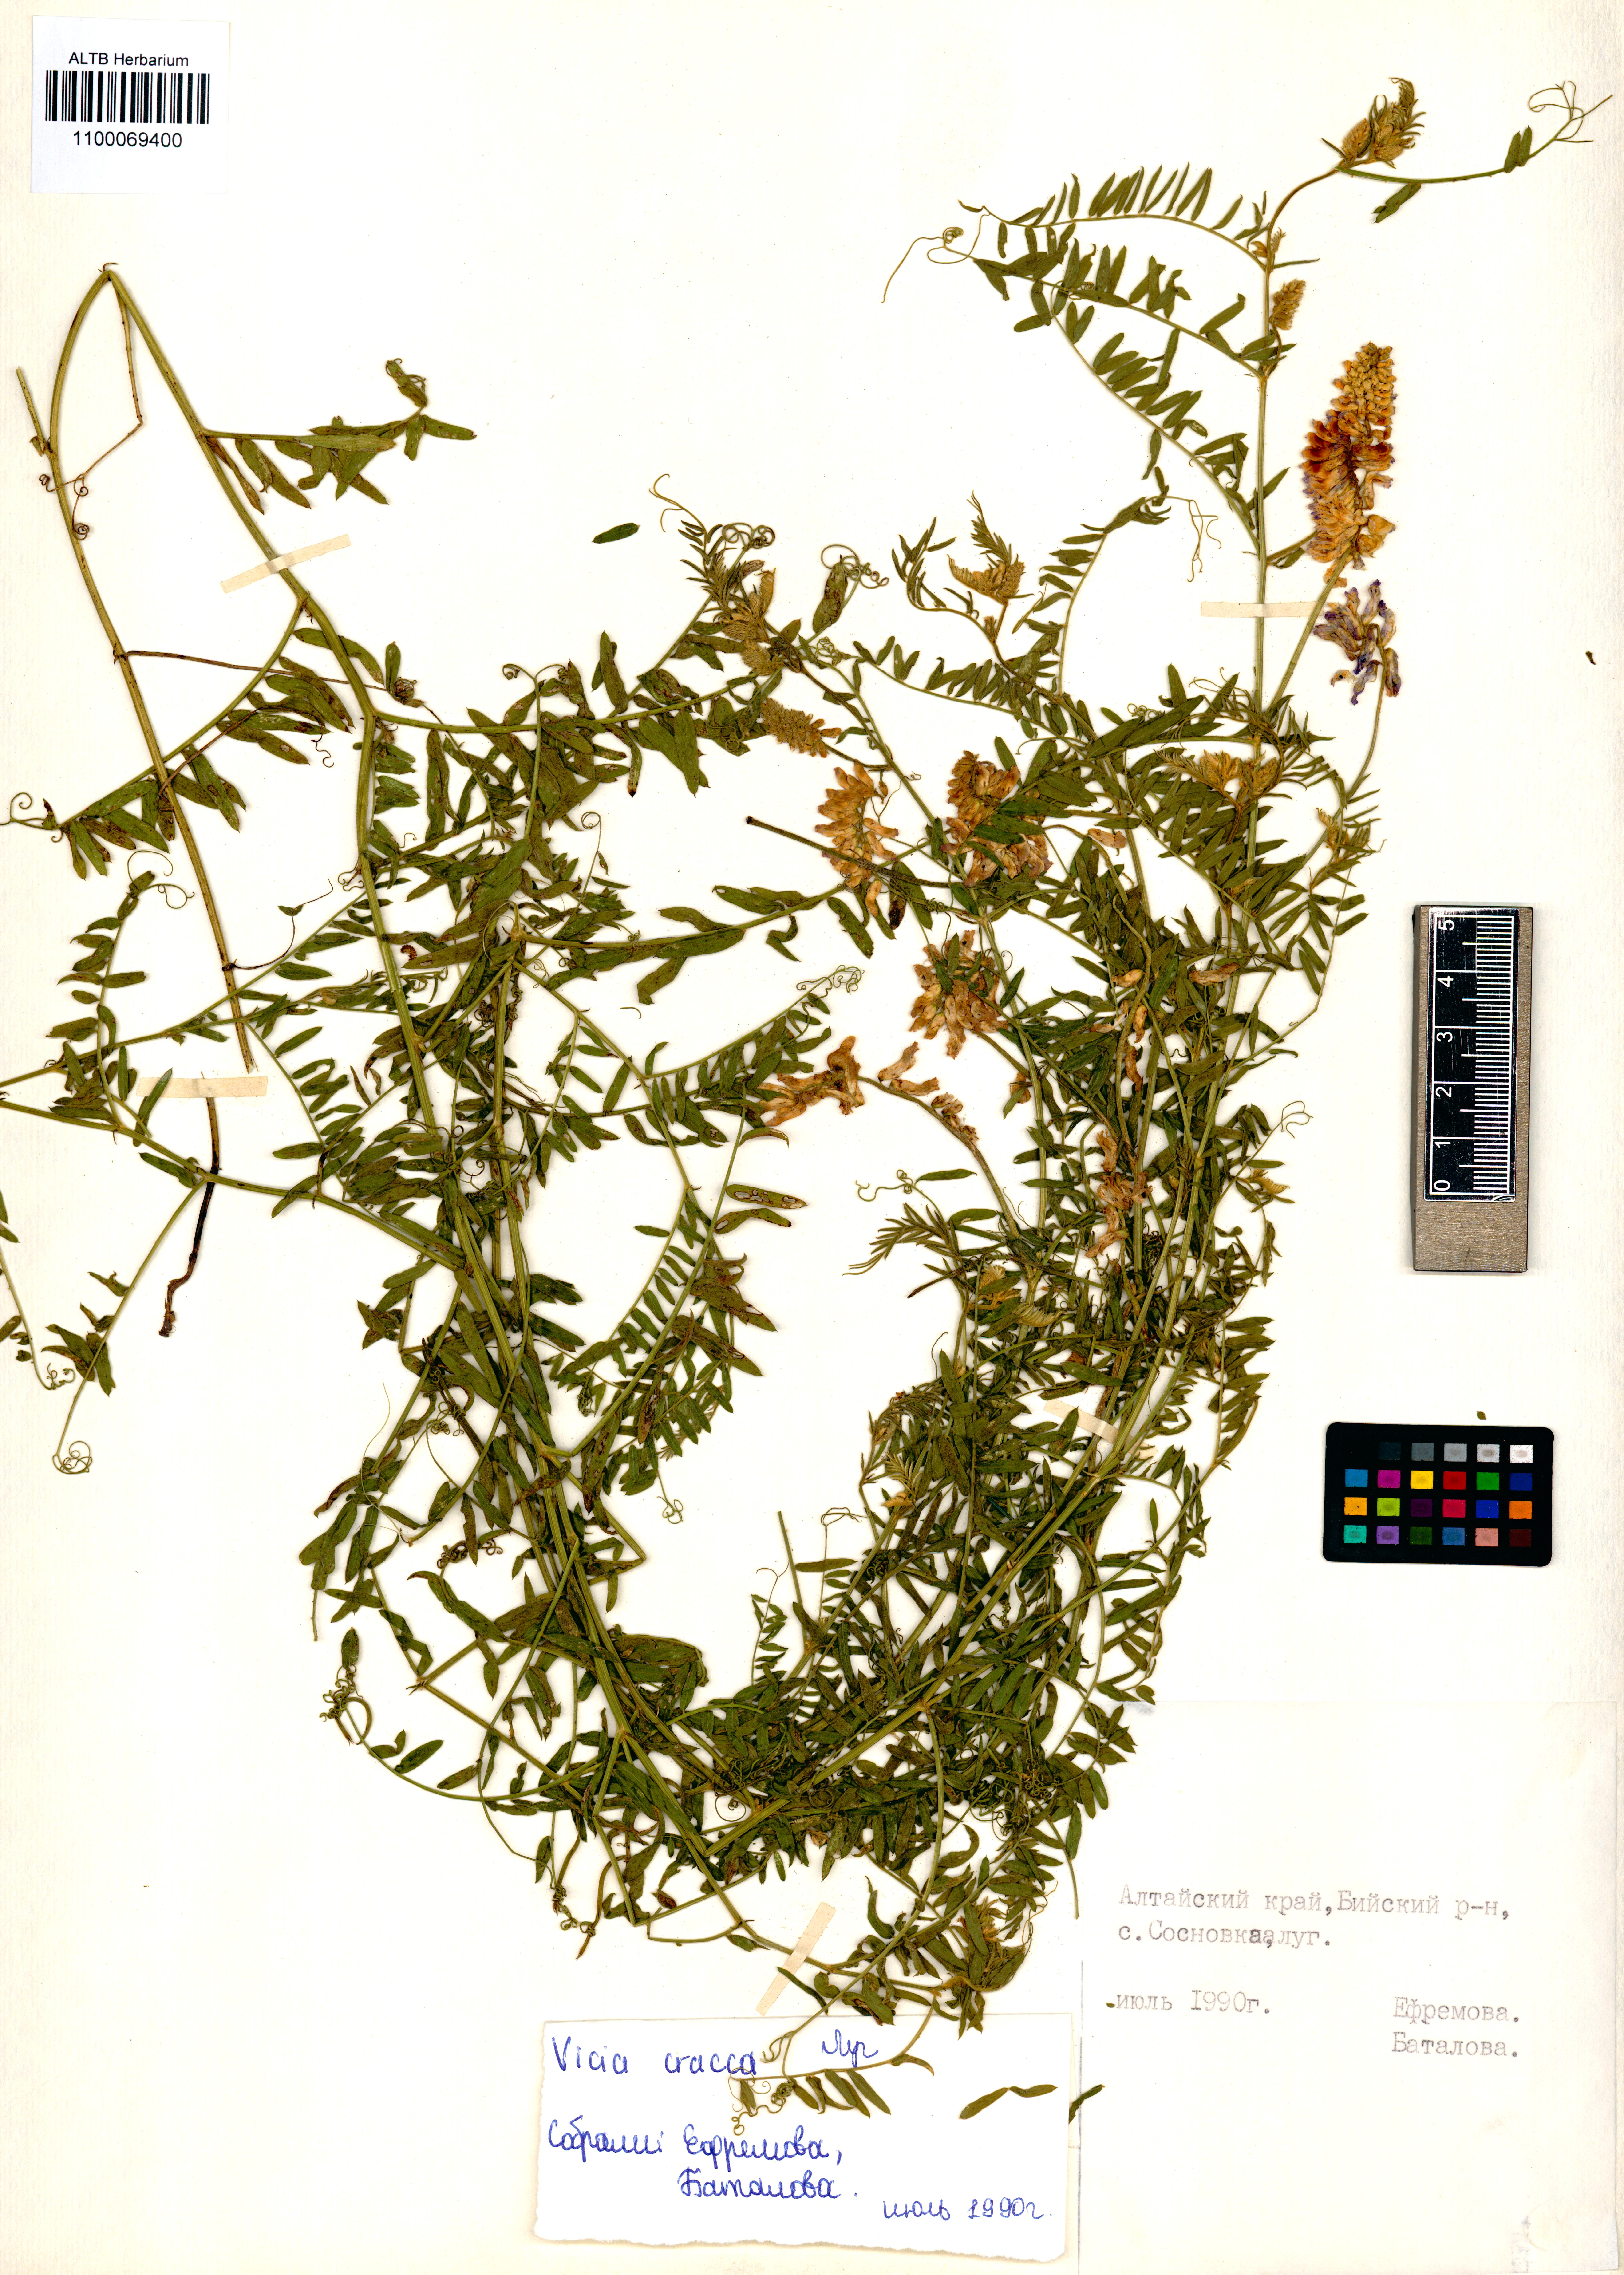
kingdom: Plantae
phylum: Tracheophyta
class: Magnoliopsida
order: Fabales
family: Fabaceae
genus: Vicia
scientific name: Vicia cracca
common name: Bird vetch
